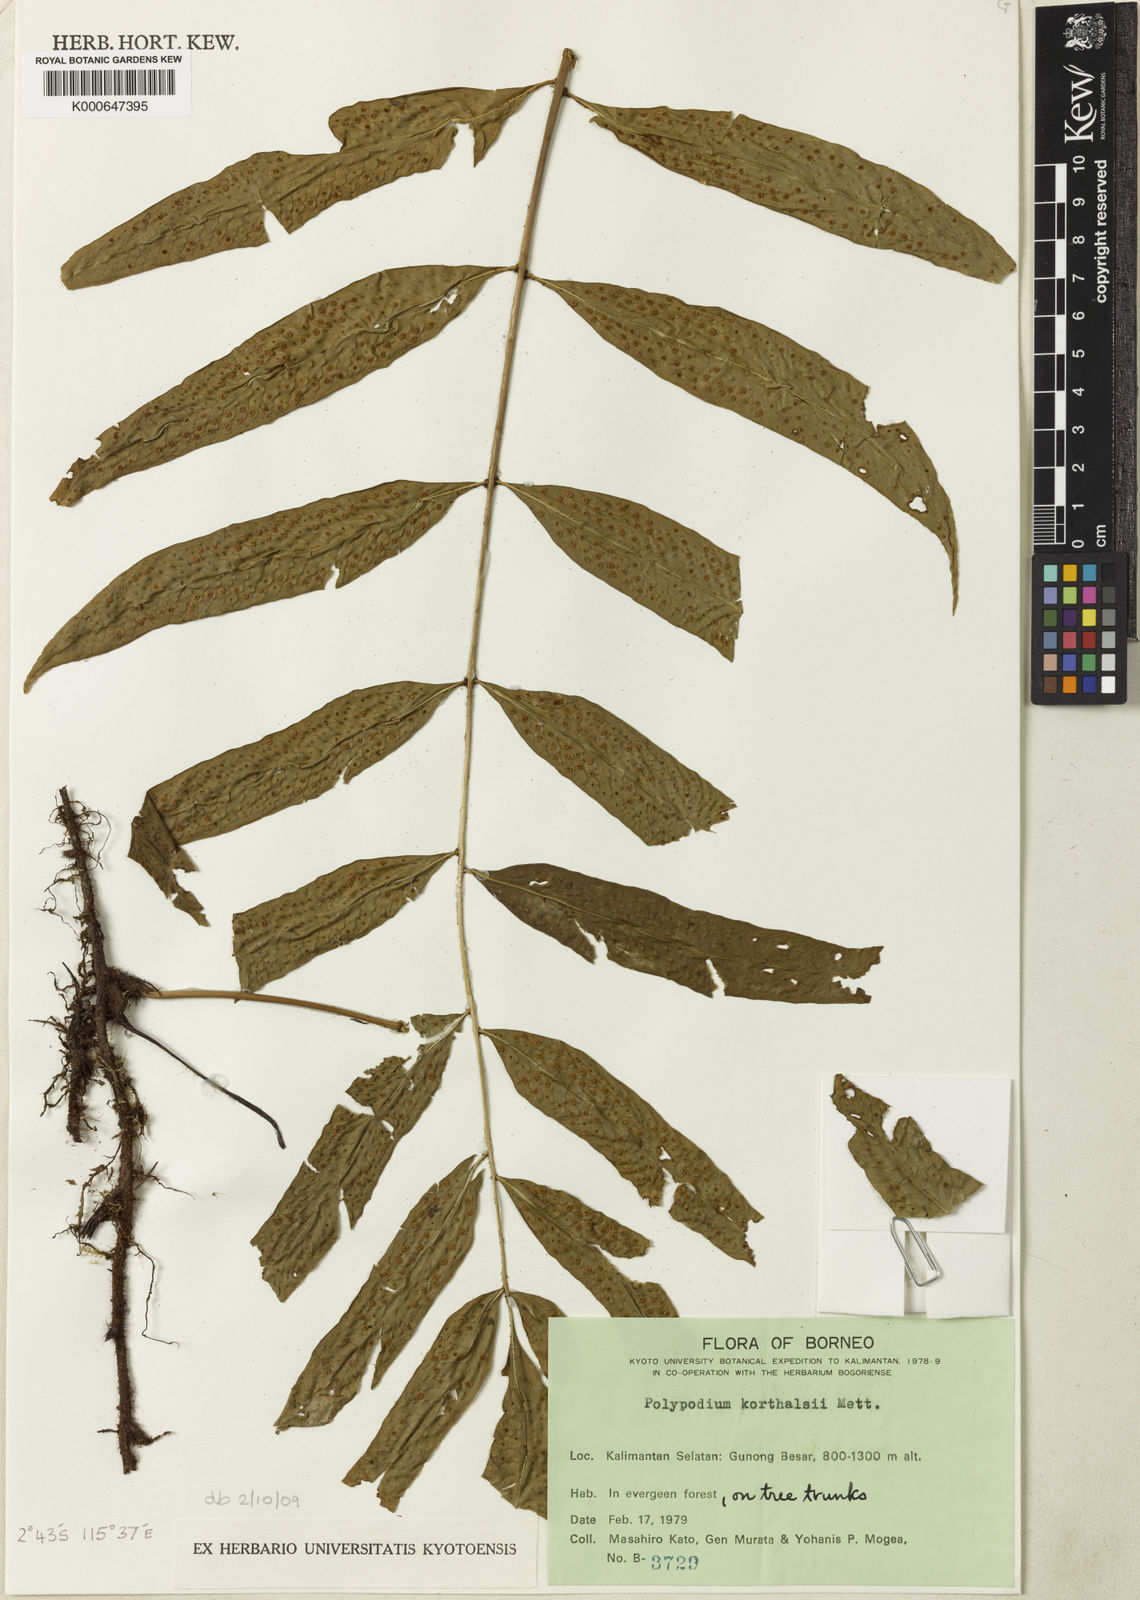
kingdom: Plantae
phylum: Tracheophyta
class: Polypodiopsida
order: Polypodiales
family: Polypodiaceae
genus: Goniophlebium
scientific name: Goniophlebium korthalsii
